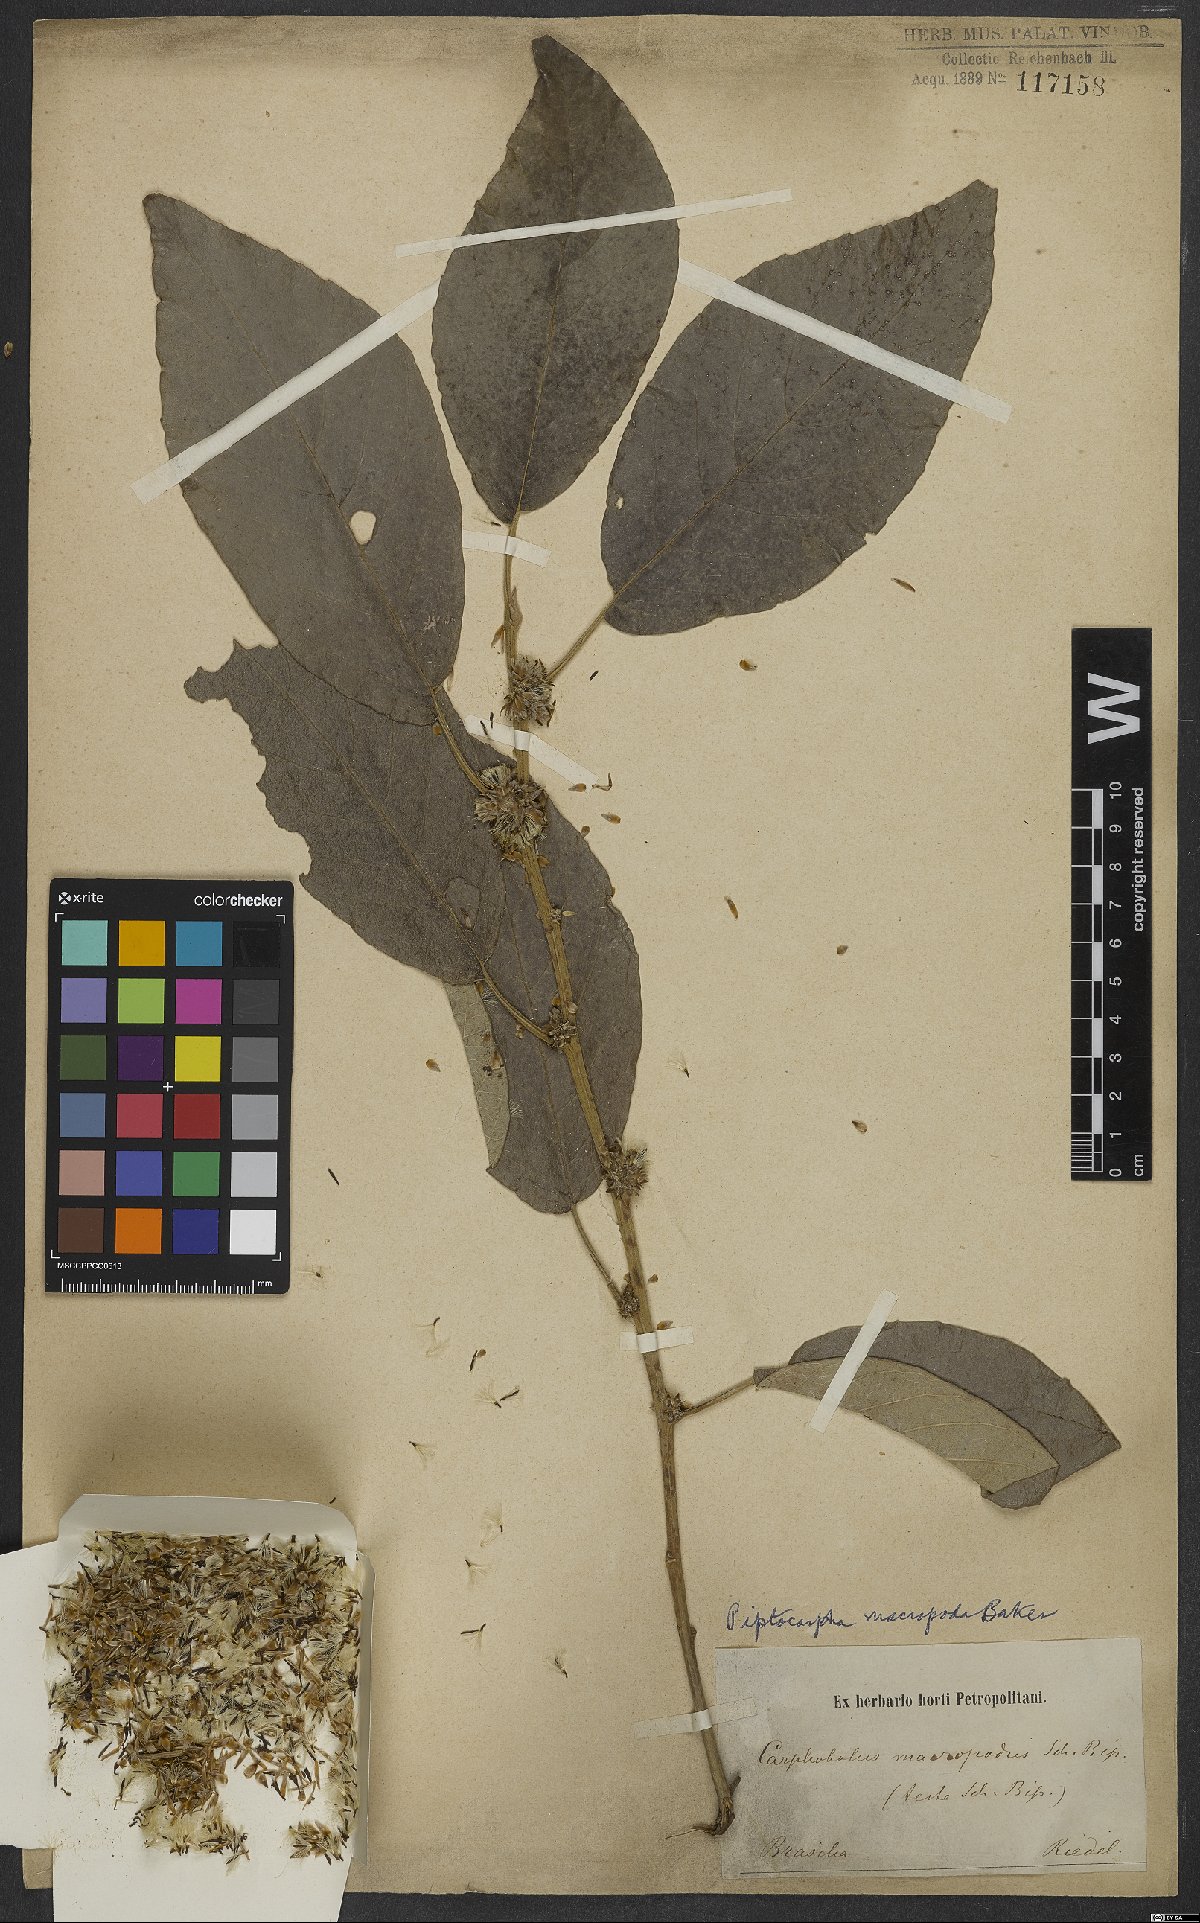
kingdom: Plantae
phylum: Tracheophyta
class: Magnoliopsida
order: Asterales
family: Asteraceae
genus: Piptocarpha
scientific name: Piptocarpha macropoda
